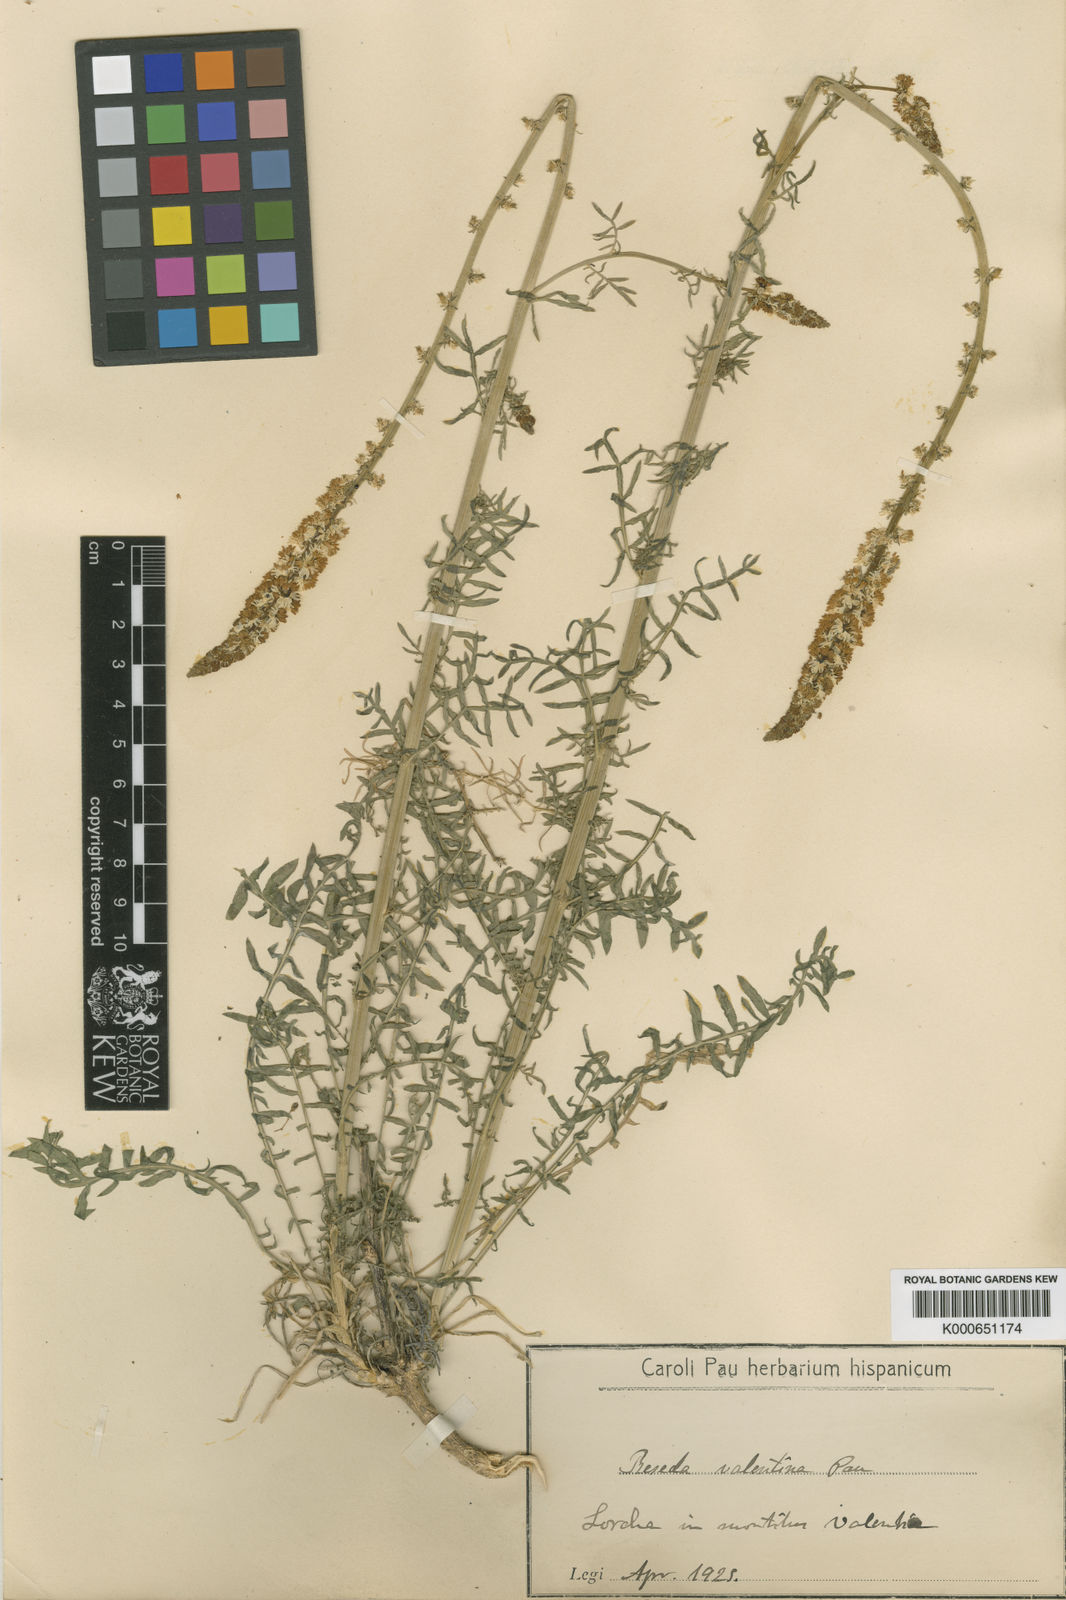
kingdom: Plantae
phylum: Tracheophyta
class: Magnoliopsida
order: Brassicales
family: Resedaceae
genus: Reseda
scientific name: Reseda suffruticosa
